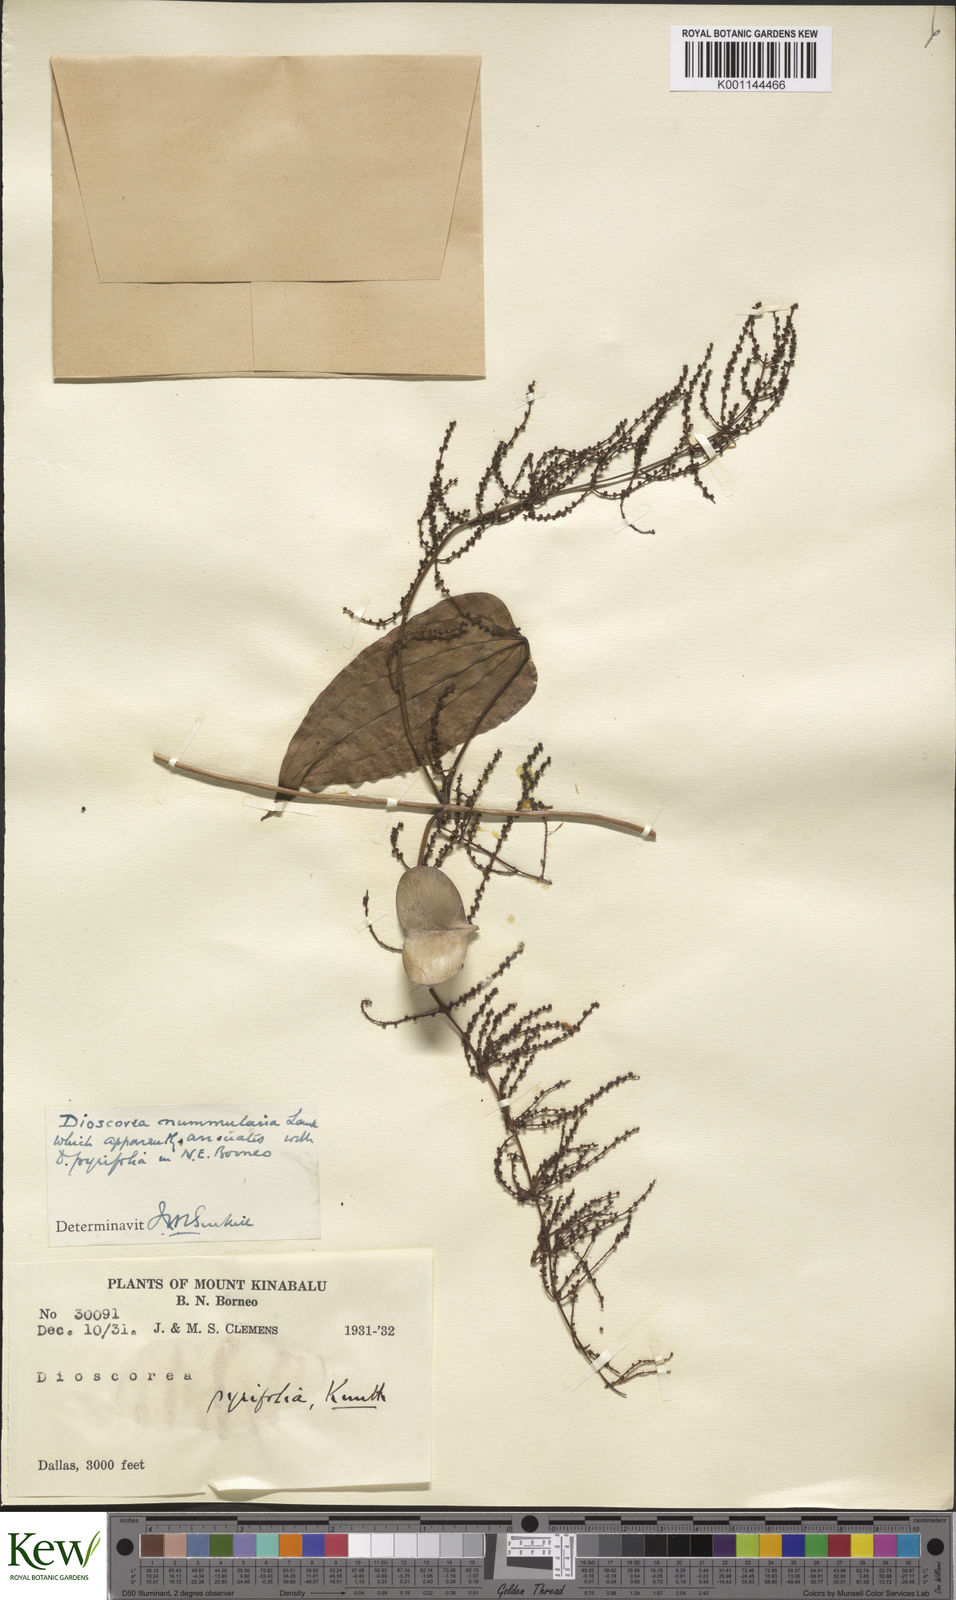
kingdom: Plantae
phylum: Tracheophyta
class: Liliopsida
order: Dioscoreales
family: Dioscoreaceae
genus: Dioscorea
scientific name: Dioscorea nummularia
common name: Pacific yam
